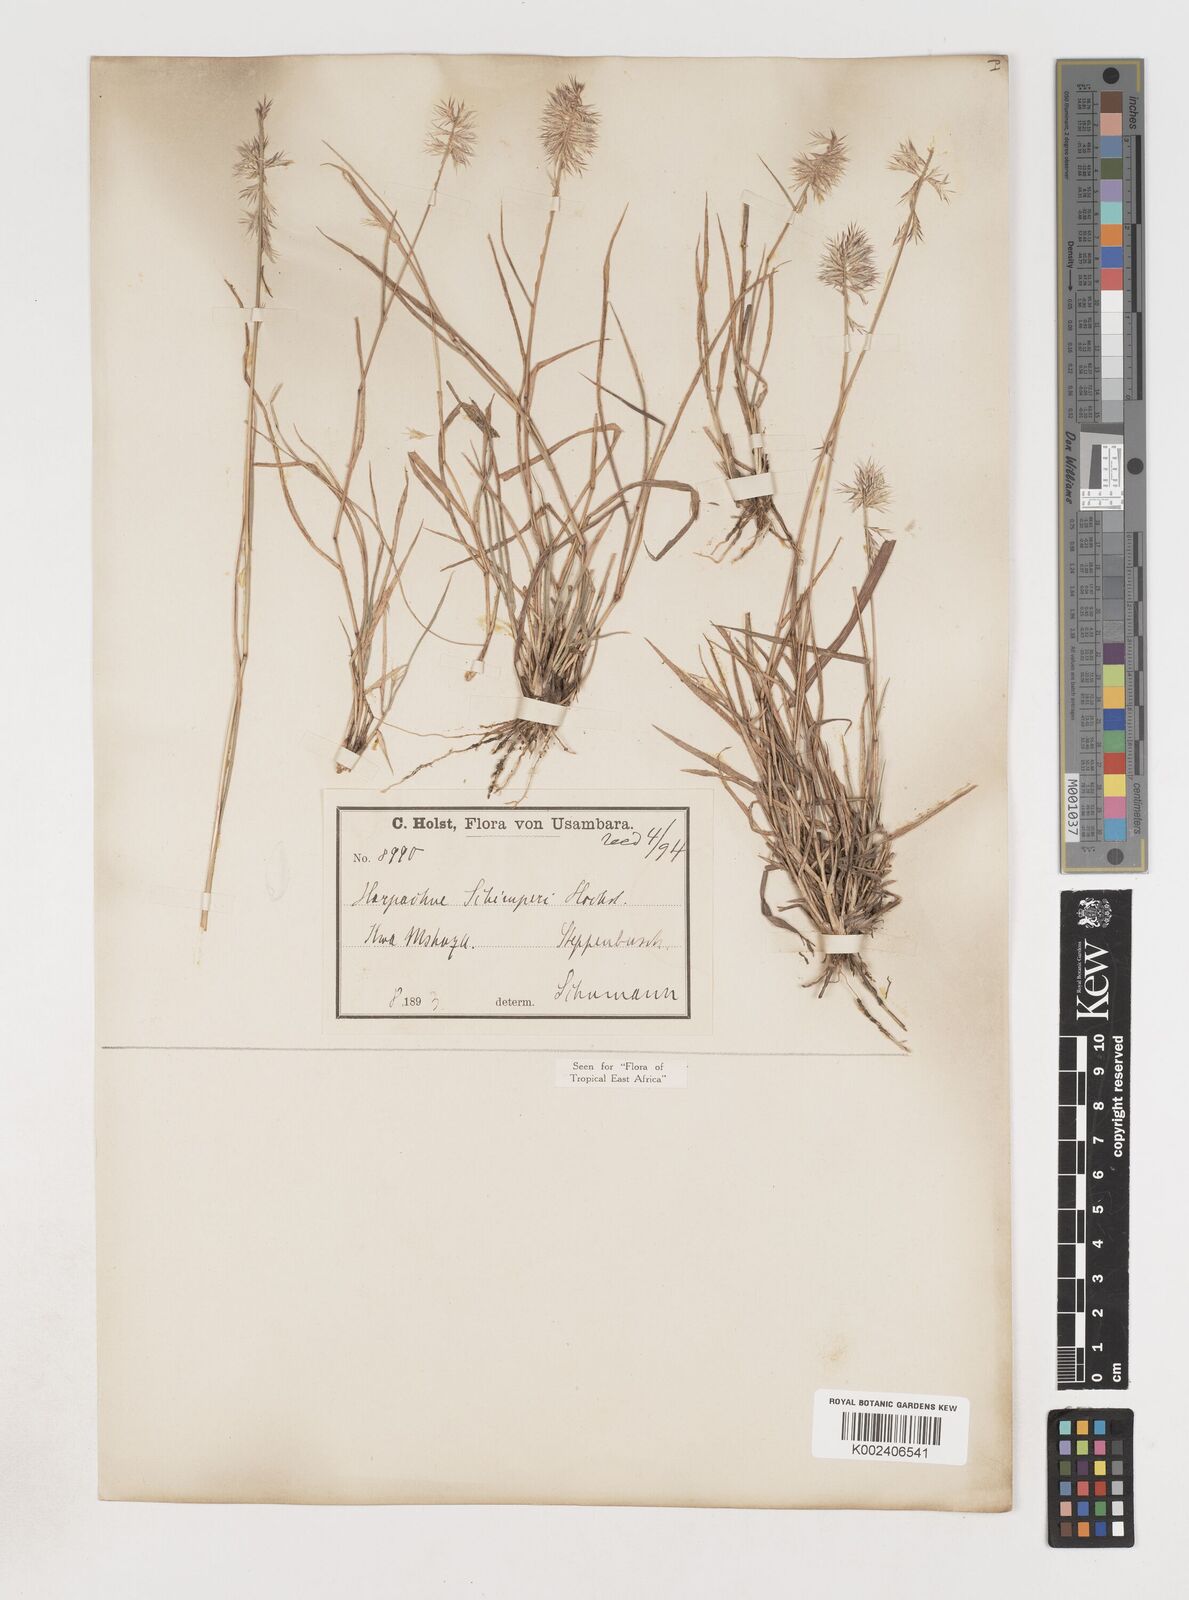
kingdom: Plantae
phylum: Tracheophyta
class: Liliopsida
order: Poales
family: Poaceae
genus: Harpachne
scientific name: Harpachne schimperi
